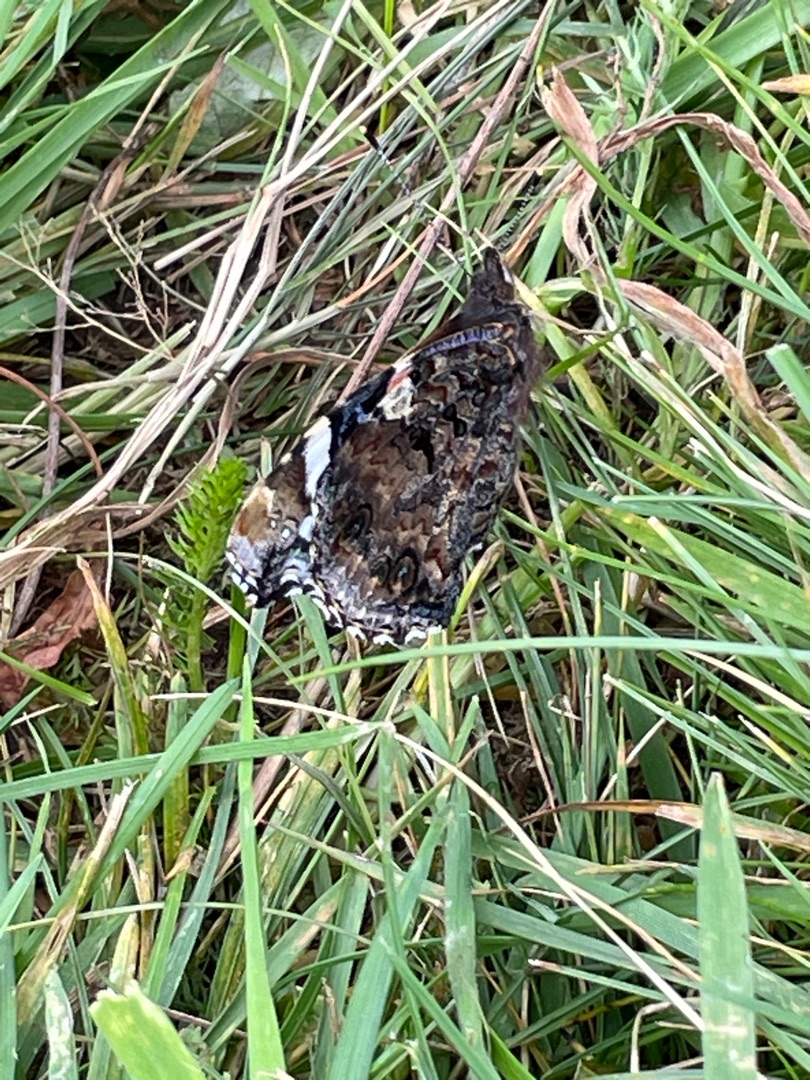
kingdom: Animalia
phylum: Arthropoda
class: Insecta
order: Lepidoptera
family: Nymphalidae
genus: Vanessa
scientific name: Vanessa atalanta
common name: Admiral
